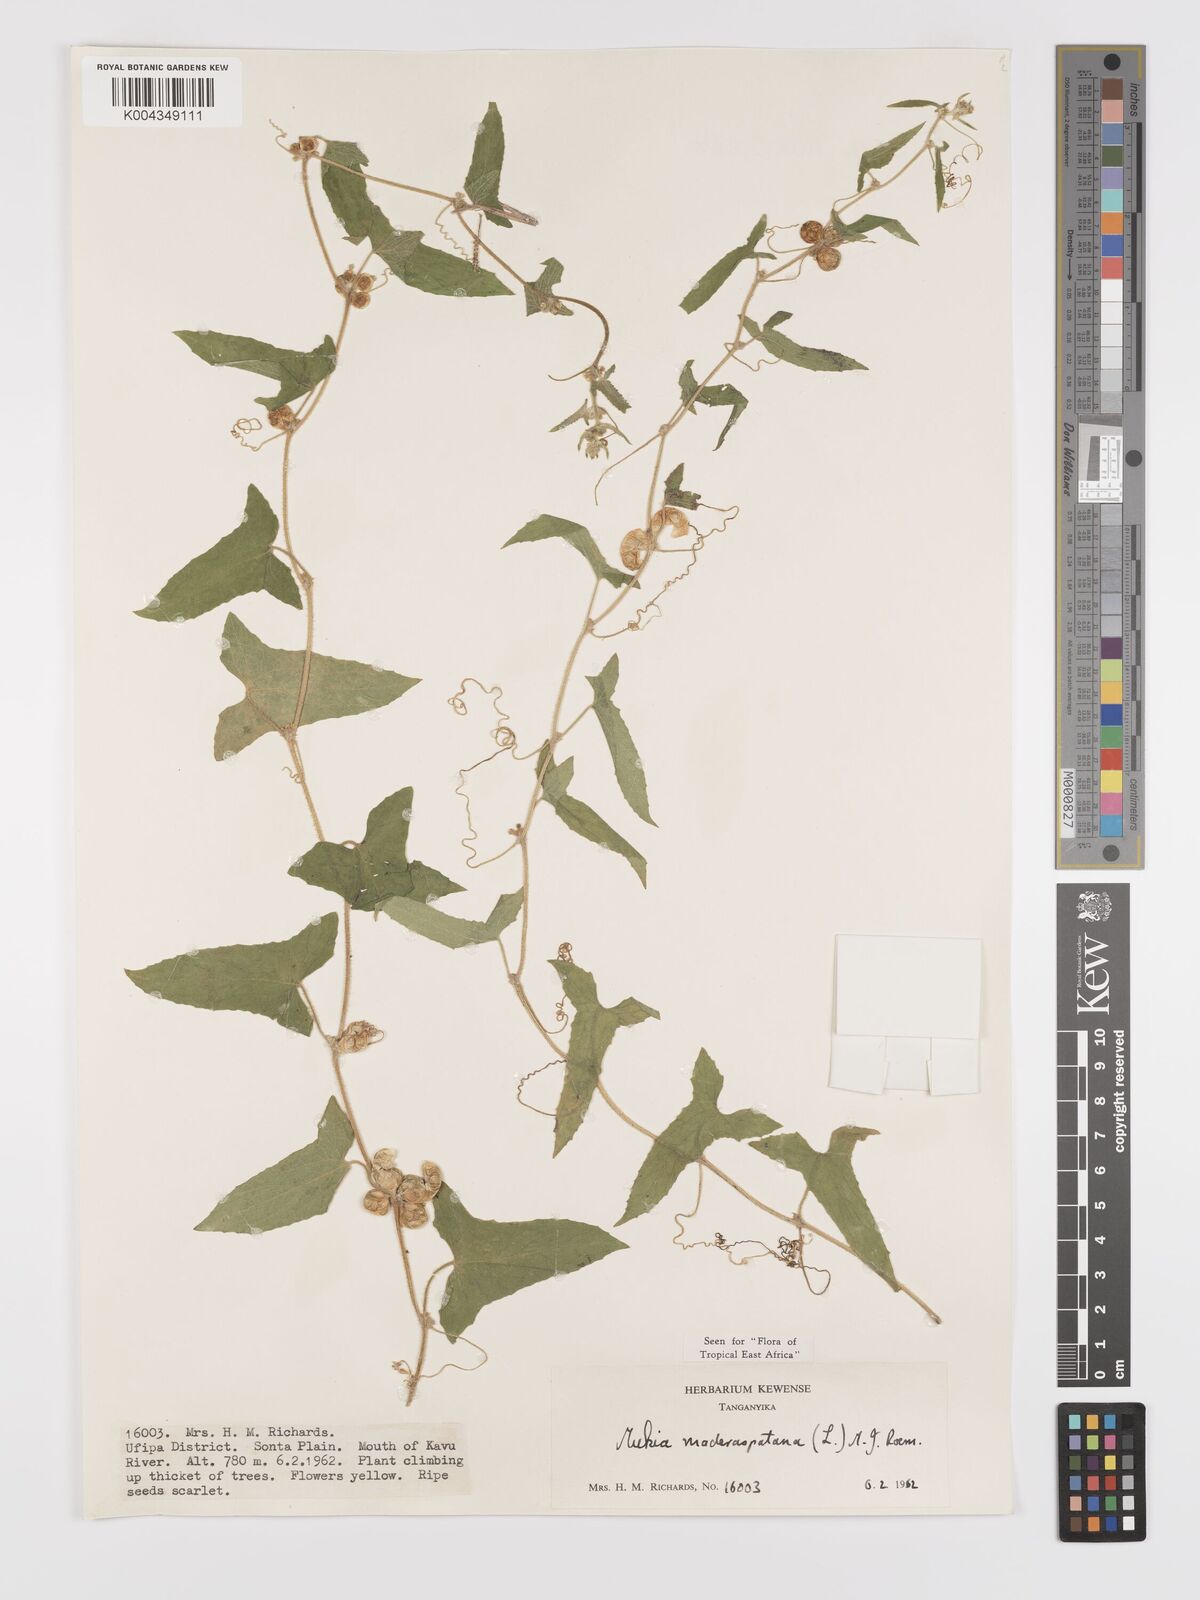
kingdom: Plantae
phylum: Tracheophyta
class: Magnoliopsida
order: Cucurbitales
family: Cucurbitaceae
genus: Cucumis
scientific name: Cucumis maderaspatanus
